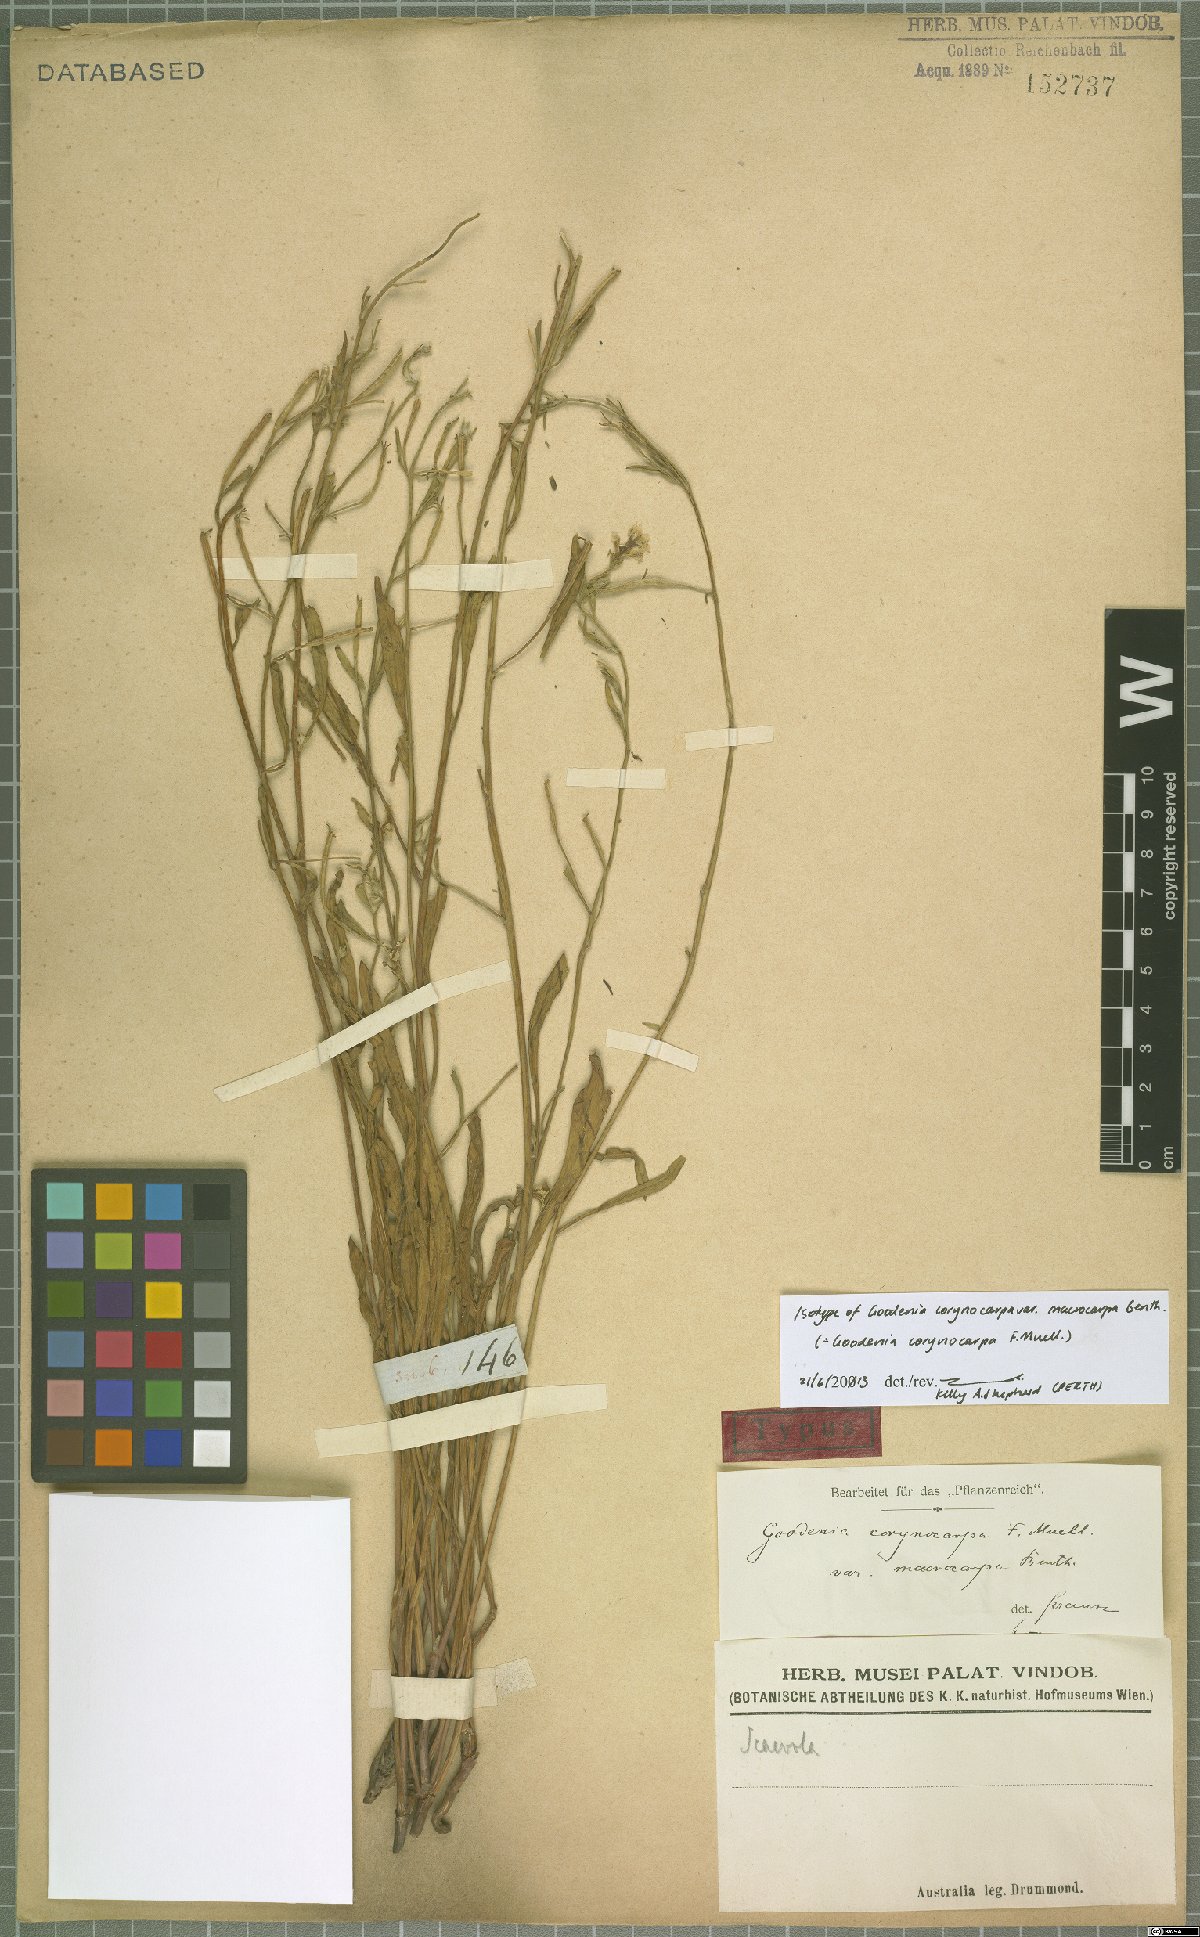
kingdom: Plantae
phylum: Tracheophyta
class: Magnoliopsida
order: Asterales
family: Goodeniaceae
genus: Goodenia
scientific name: Goodenia corynocarpa
